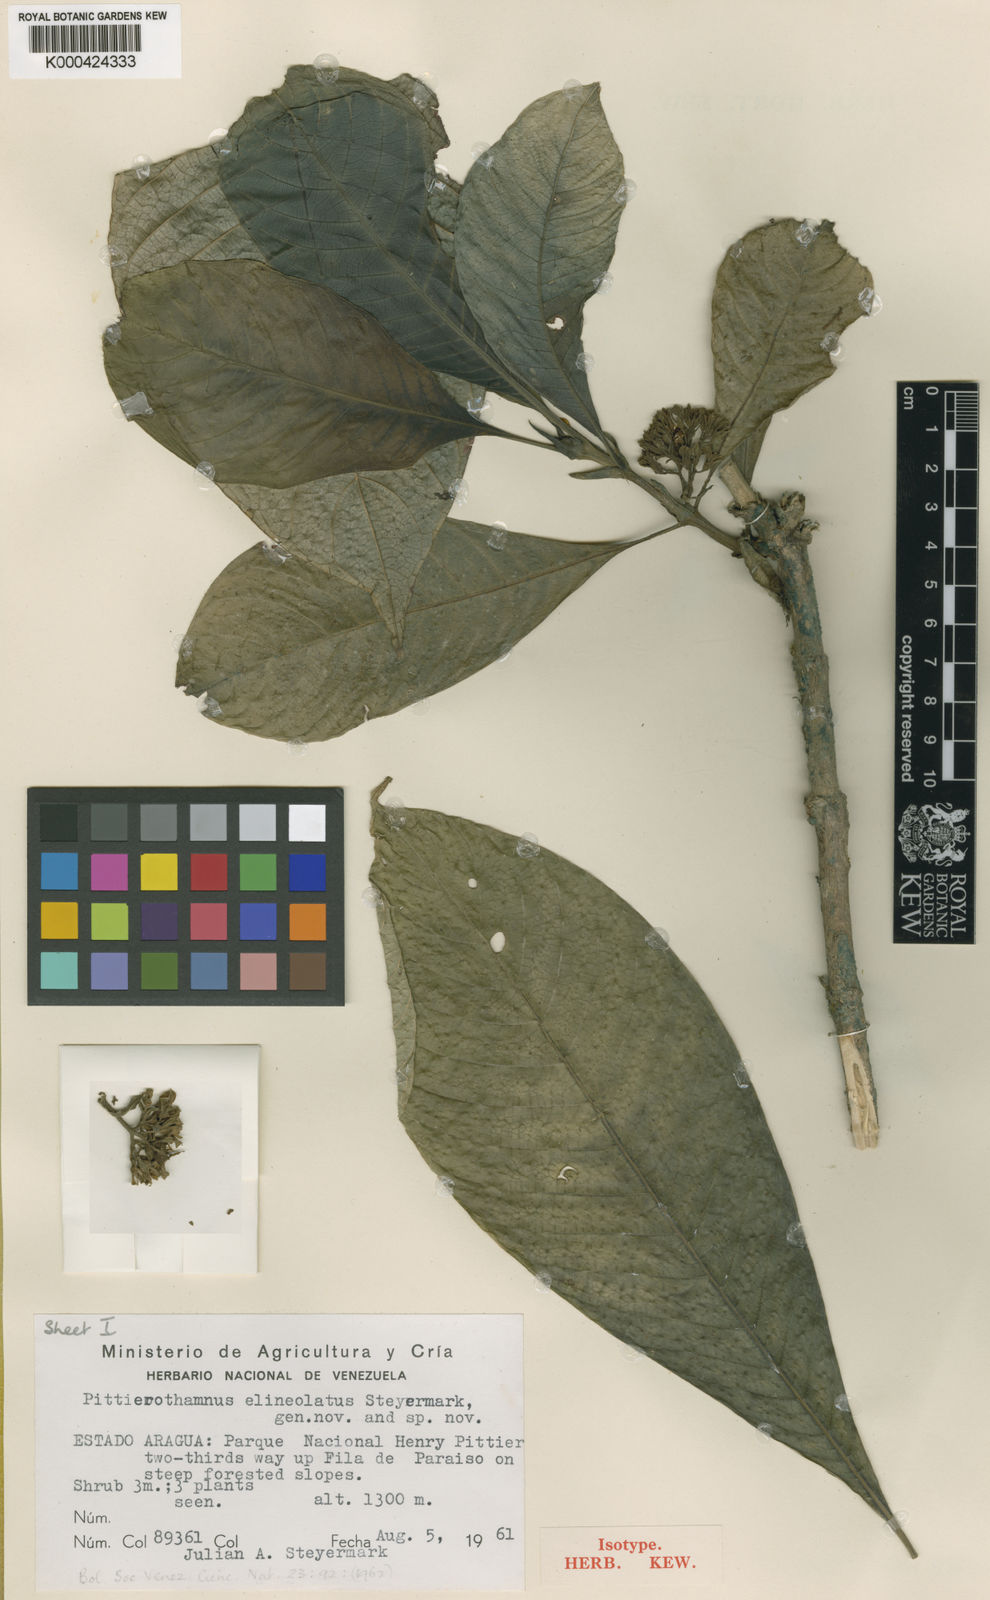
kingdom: Plantae
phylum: Tracheophyta
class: Magnoliopsida
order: Gentianales
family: Rubiaceae
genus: Amphidasya
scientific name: Amphidasya venezuelensis
